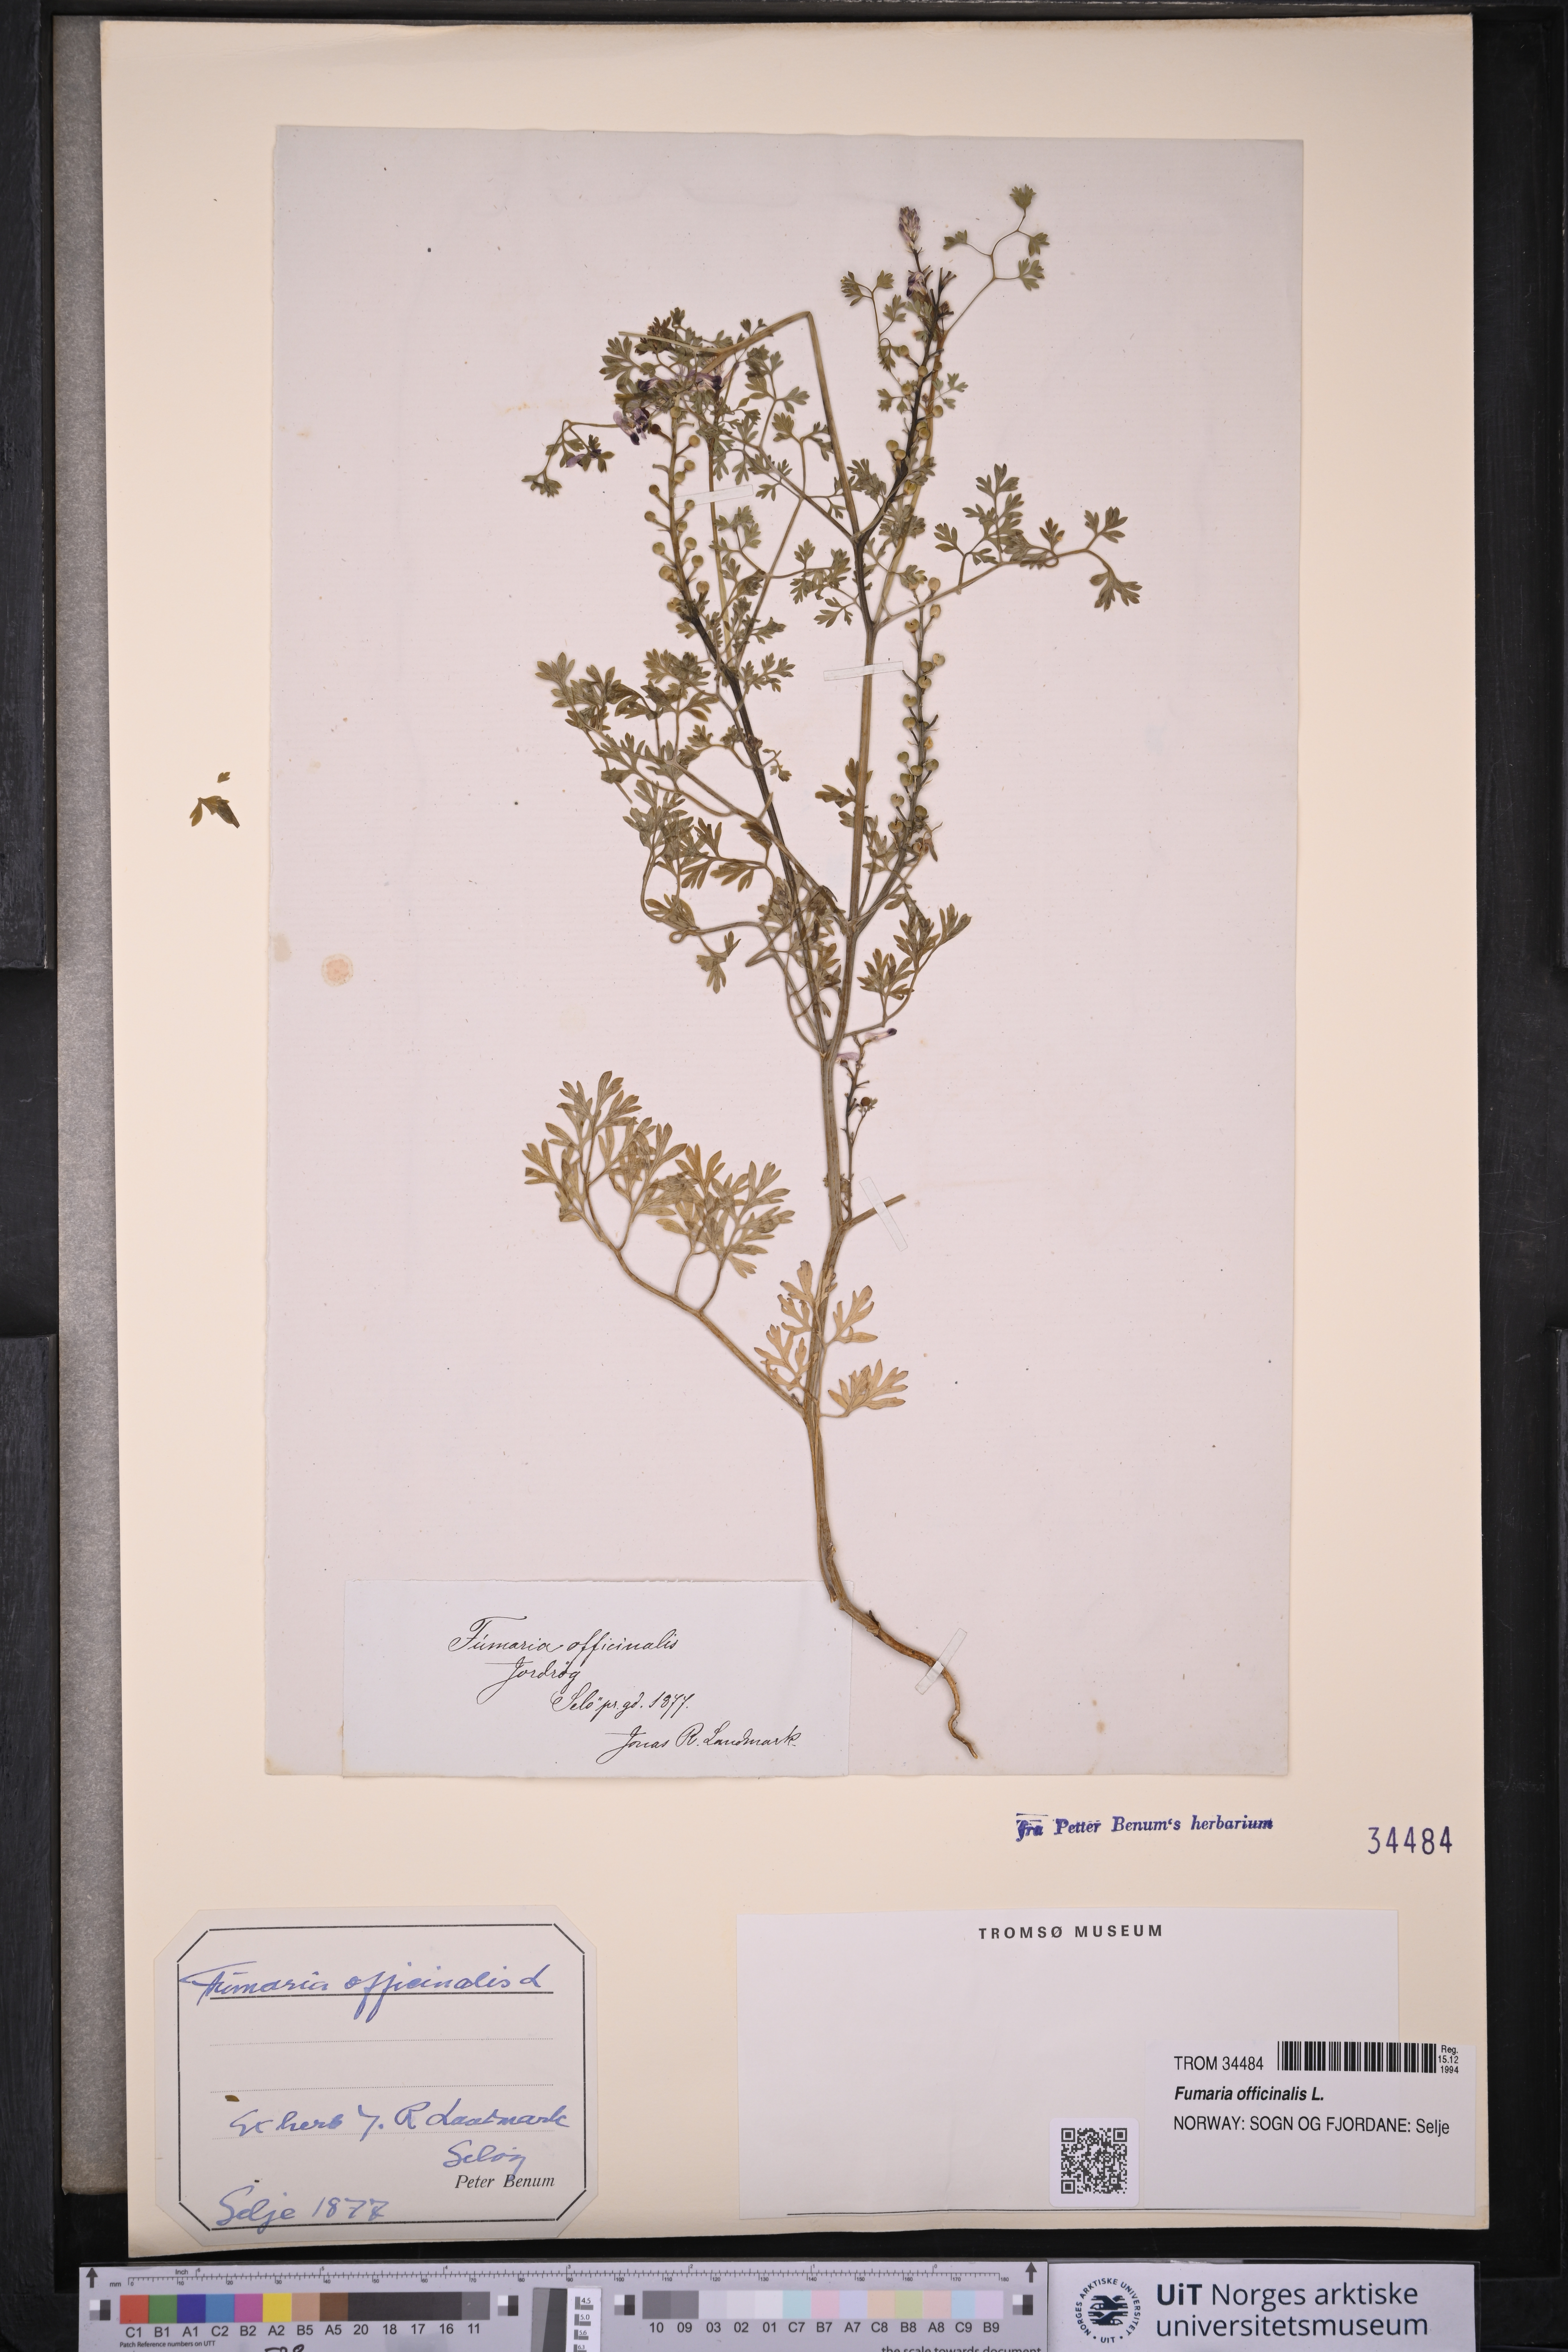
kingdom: Plantae
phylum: Tracheophyta
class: Magnoliopsida
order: Ranunculales
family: Papaveraceae
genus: Fumaria
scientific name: Fumaria officinalis
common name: Common fumitory
